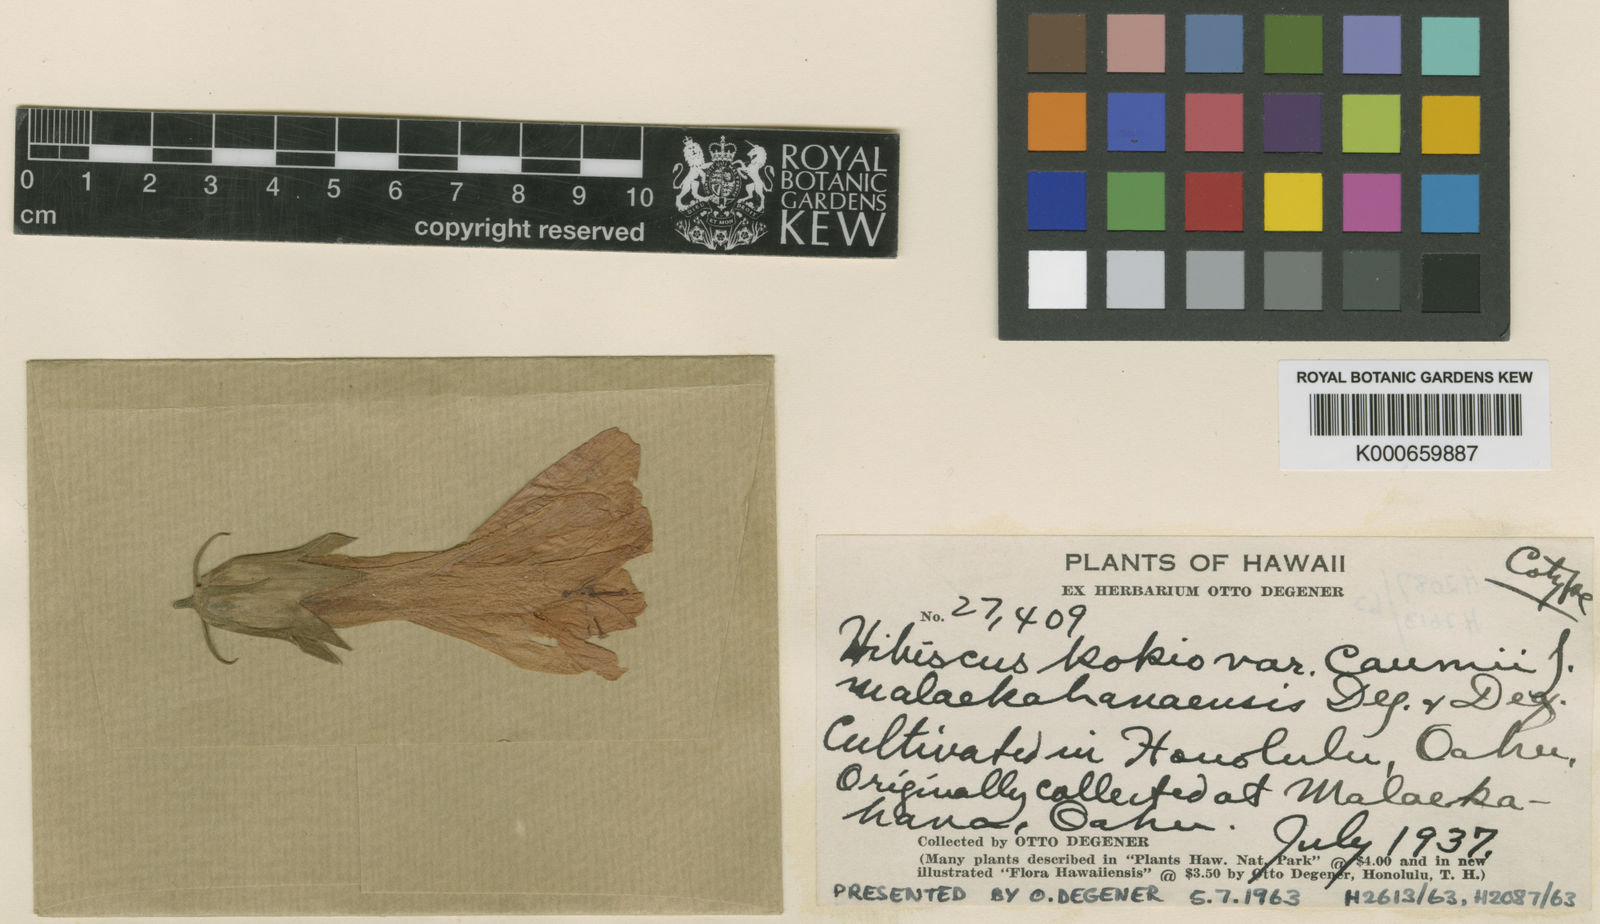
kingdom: Plantae
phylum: Tracheophyta
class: Magnoliopsida
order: Malvales
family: Malvaceae
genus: Hibiscus
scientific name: Hibiscus kokio
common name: Saint john's rosemallow
